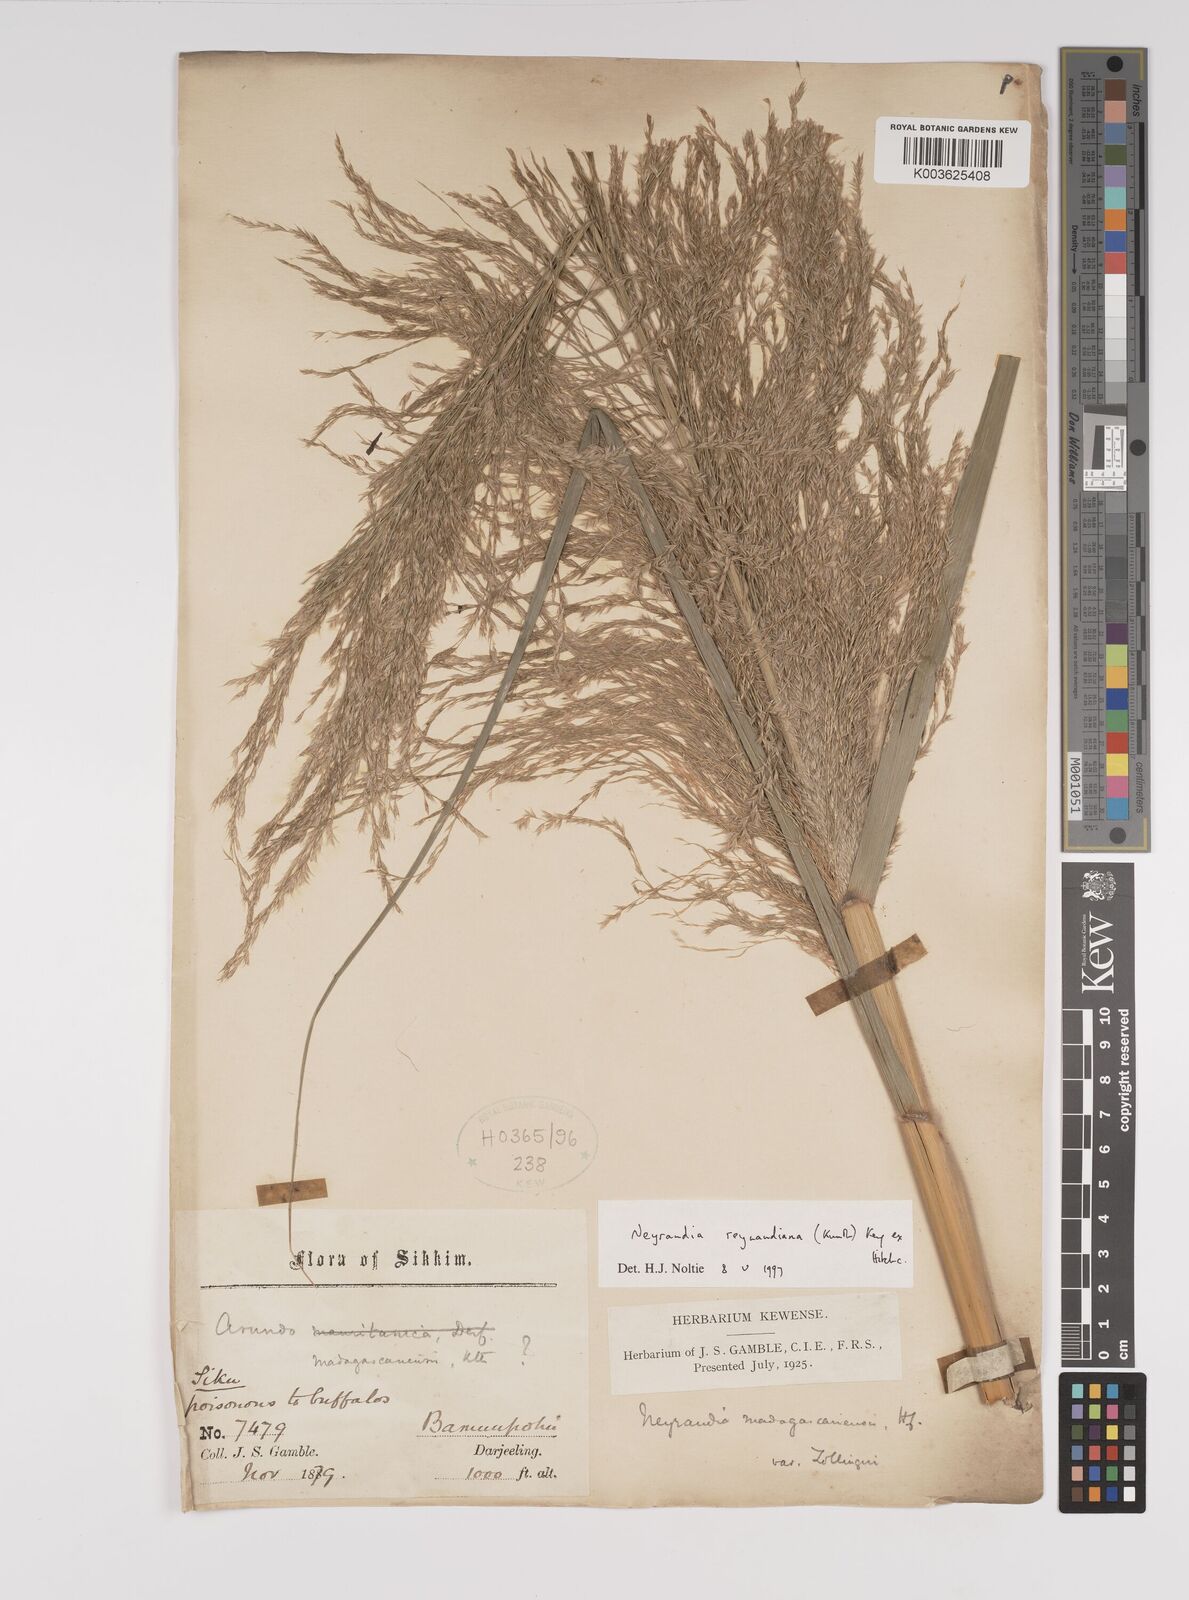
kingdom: Plantae
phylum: Tracheophyta
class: Liliopsida
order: Poales
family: Poaceae
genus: Neyraudia
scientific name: Neyraudia reynaudiana
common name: Silkreed
